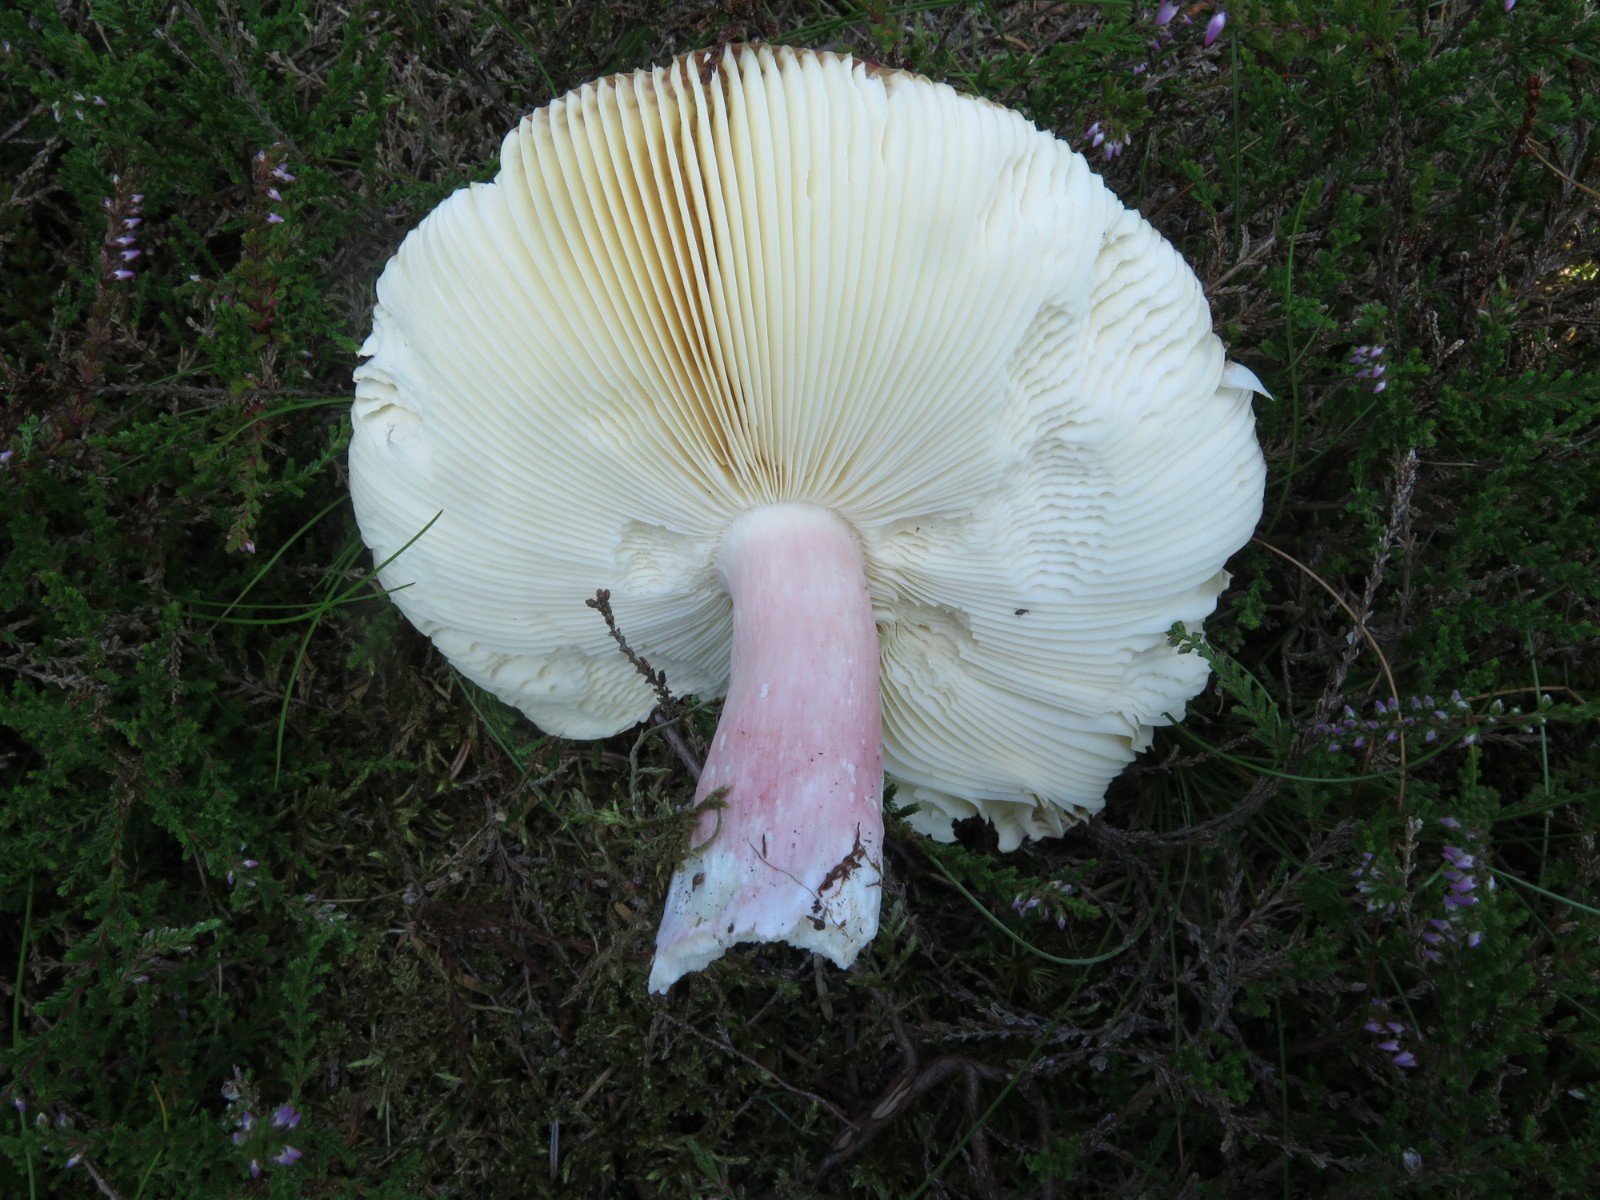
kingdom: Fungi
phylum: Basidiomycota
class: Agaricomycetes
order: Russulales
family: Russulaceae
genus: Russula
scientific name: Russula paludosa
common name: prægtig skørhat
